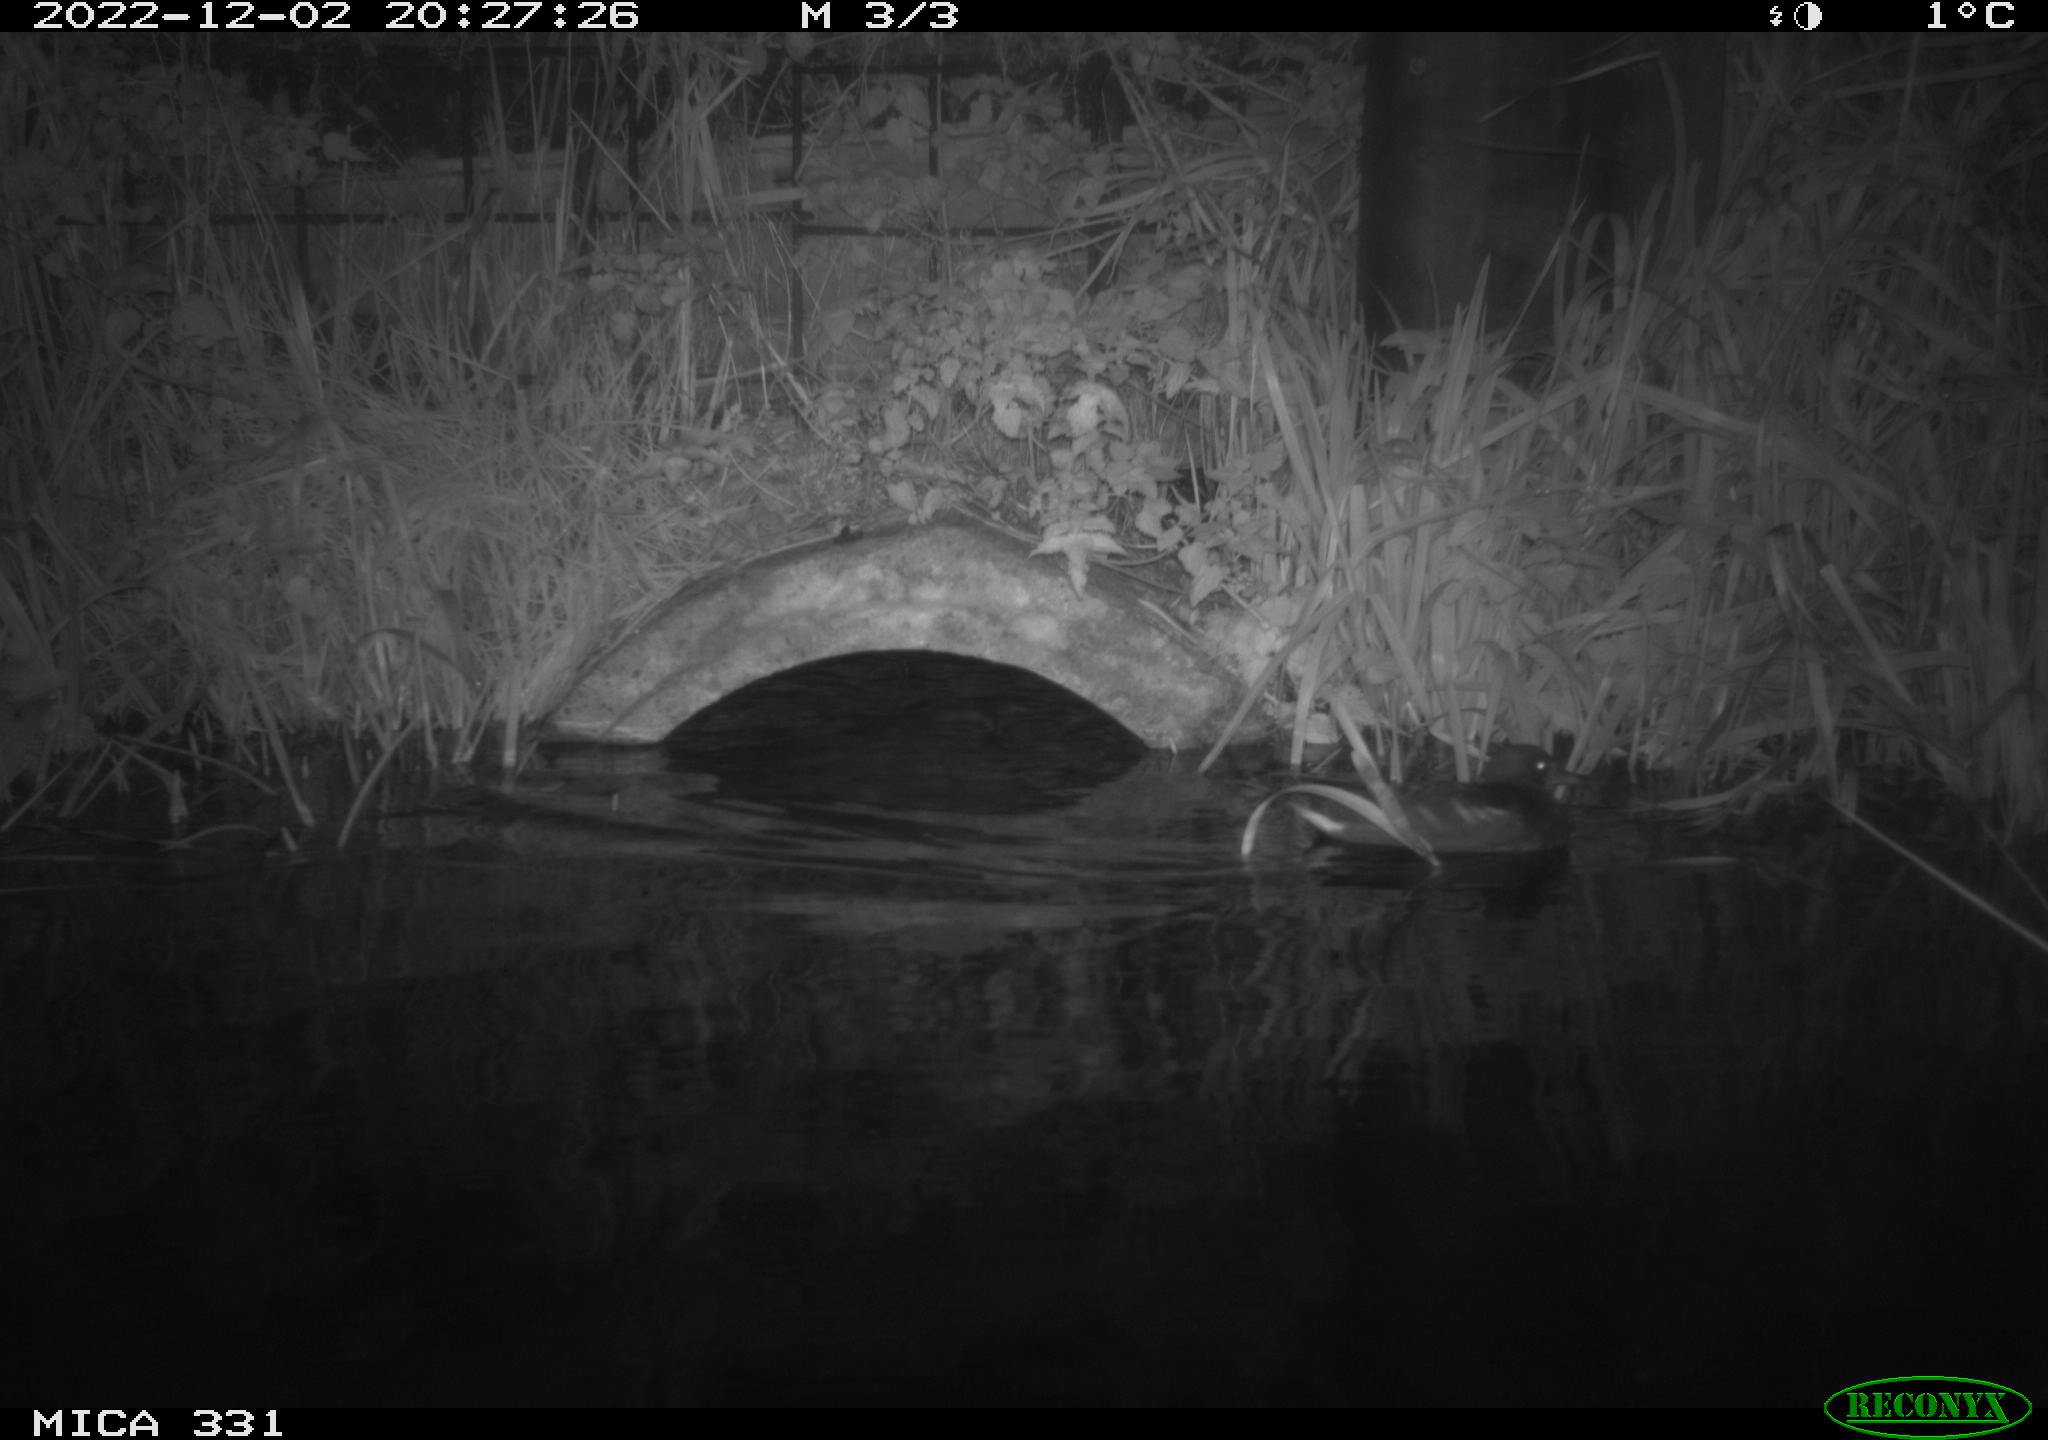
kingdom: Animalia
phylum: Chordata
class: Mammalia
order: Rodentia
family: Muridae
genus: Rattus
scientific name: Rattus norvegicus
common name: Brown rat
